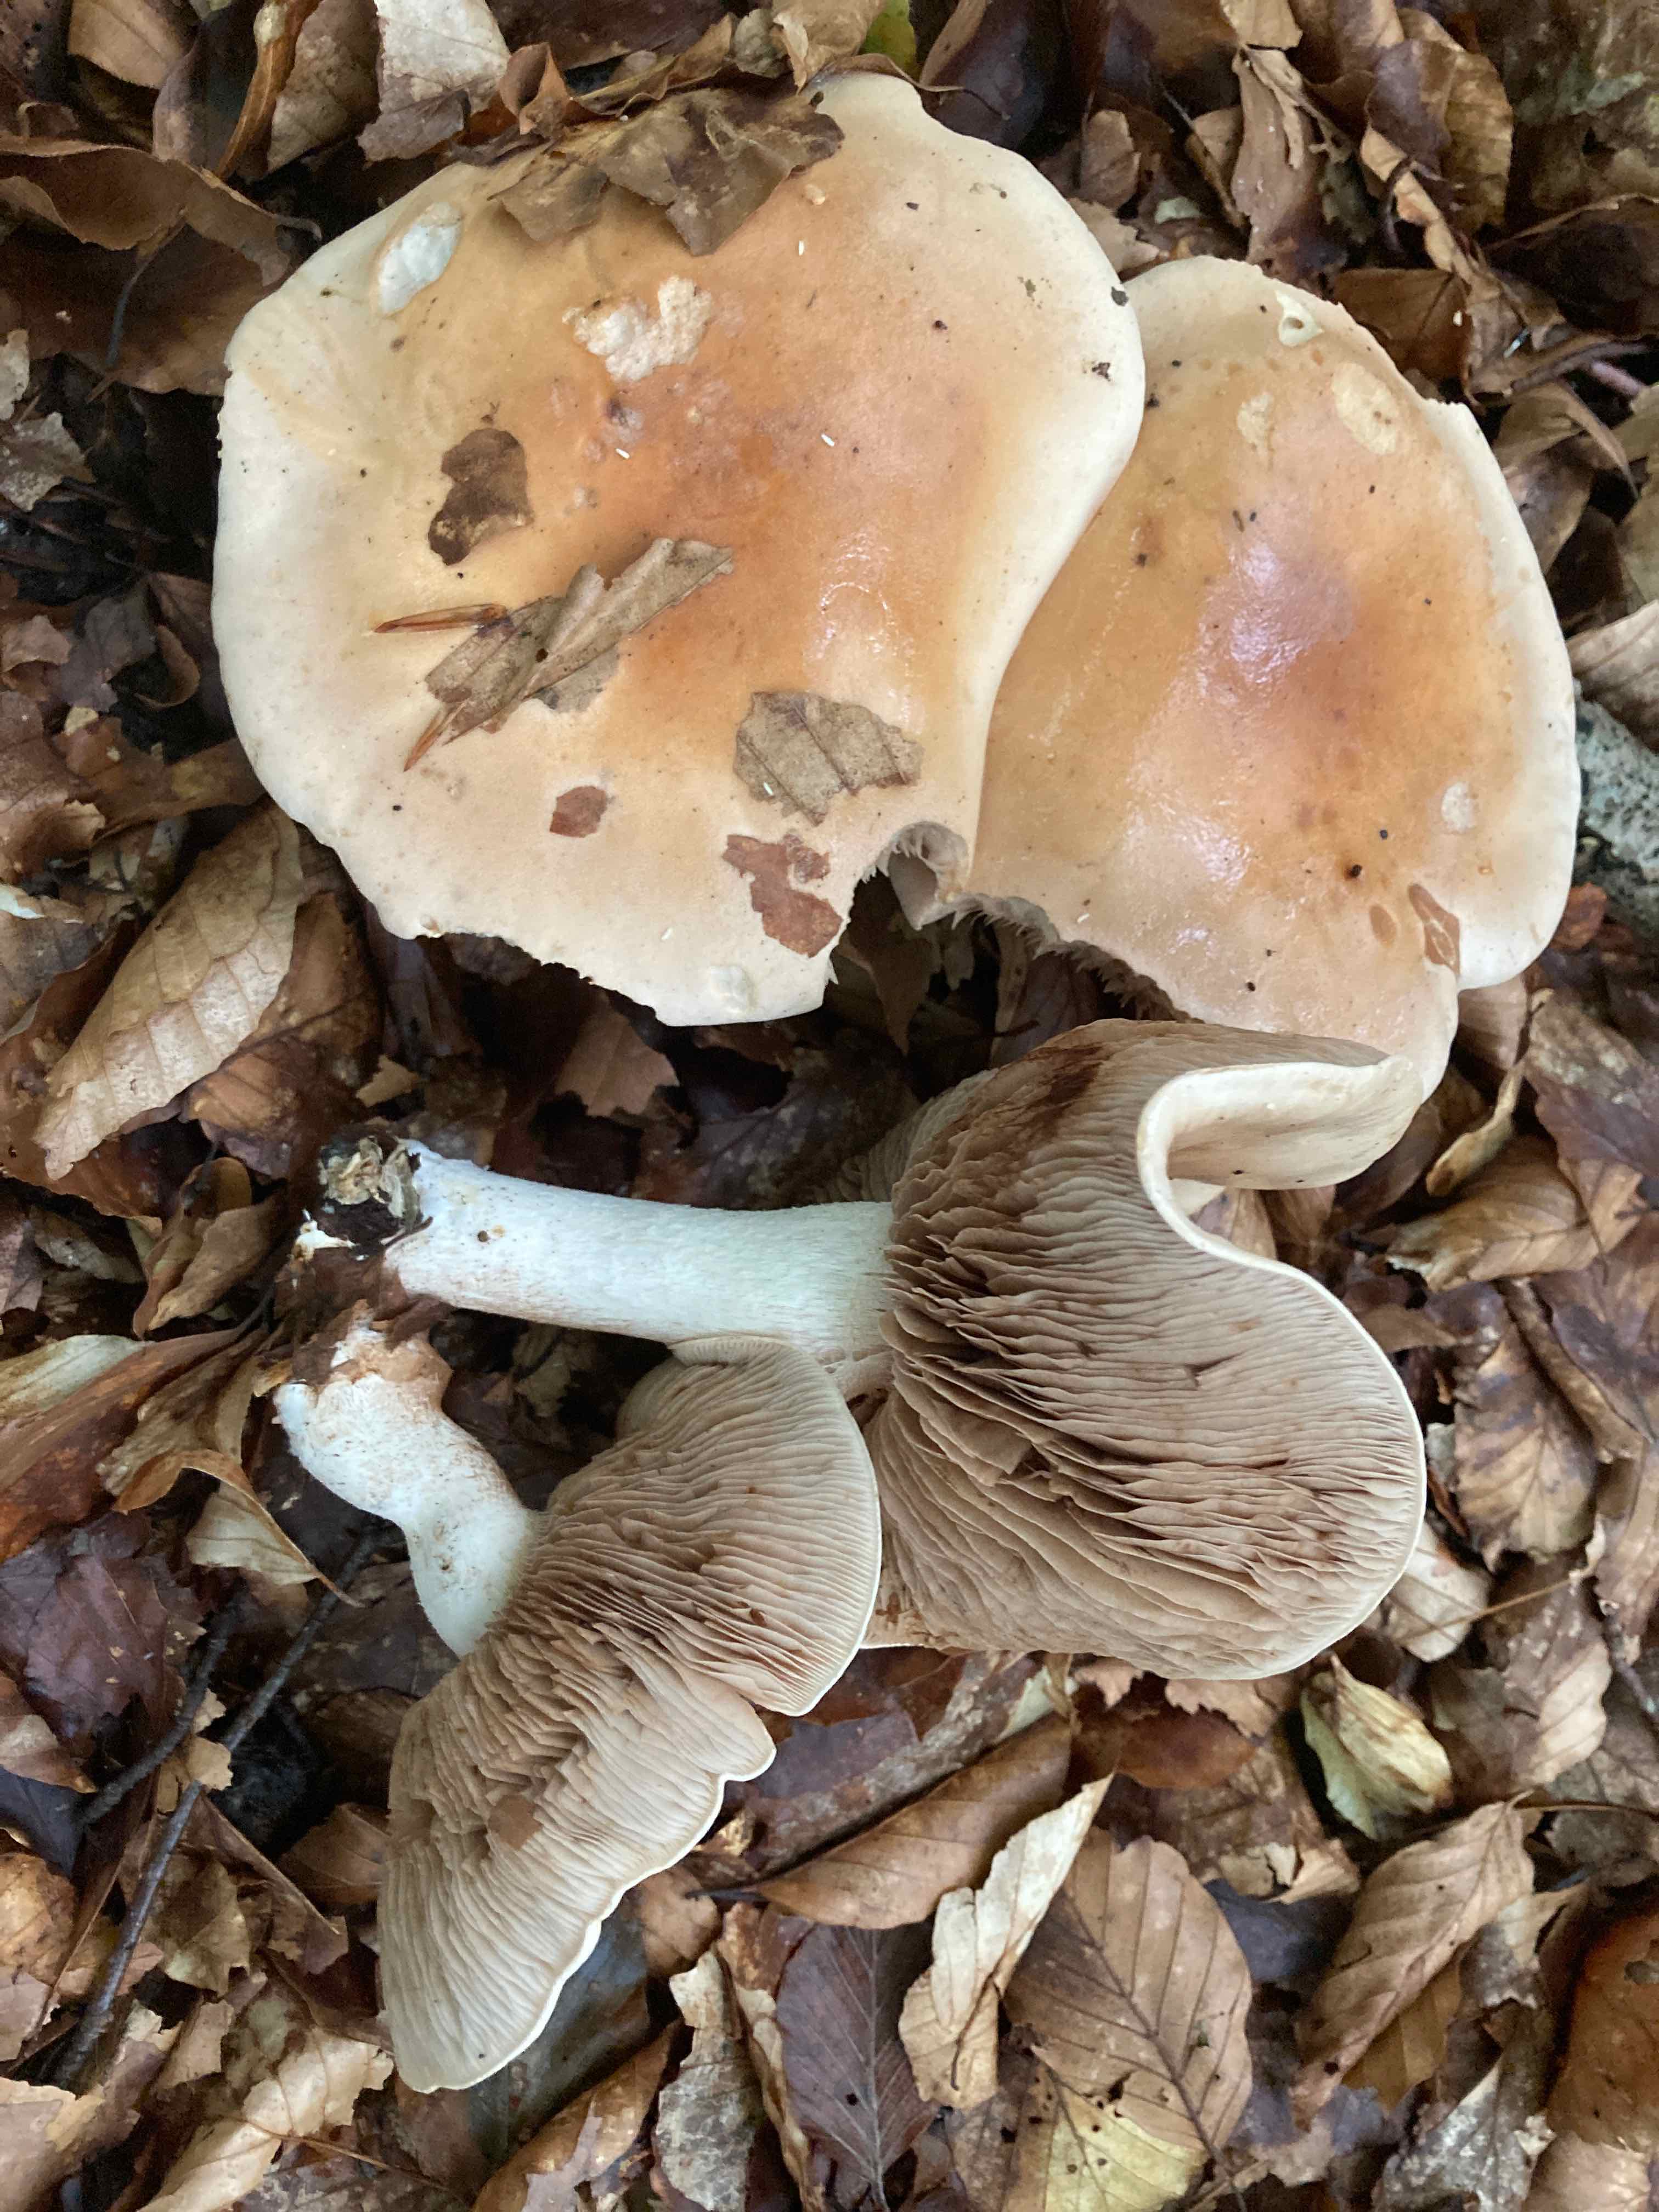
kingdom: Fungi
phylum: Basidiomycota
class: Agaricomycetes
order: Agaricales
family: Hymenogastraceae
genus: Hebeloma
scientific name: Hebeloma sinapizans
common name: ræddike-tåreblad
